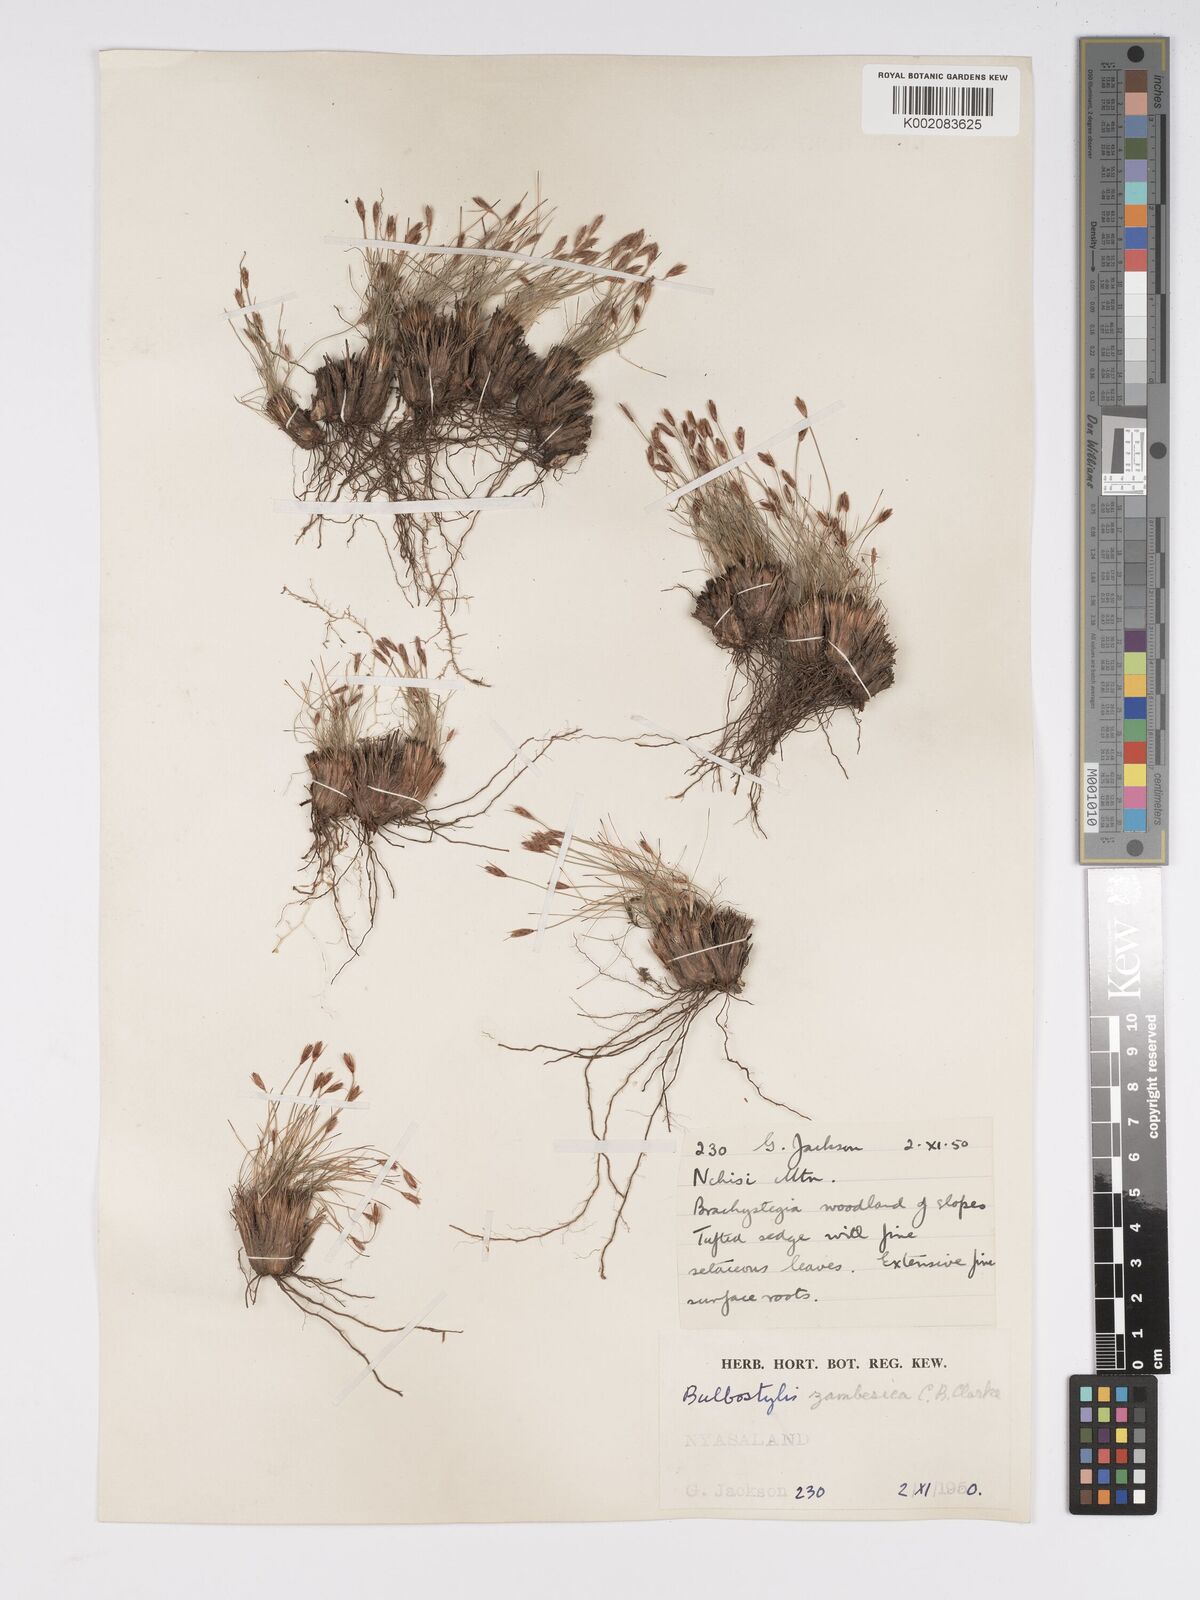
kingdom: Plantae
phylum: Tracheophyta
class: Liliopsida
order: Poales
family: Cyperaceae
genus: Bulbostylis
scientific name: Bulbostylis macra
